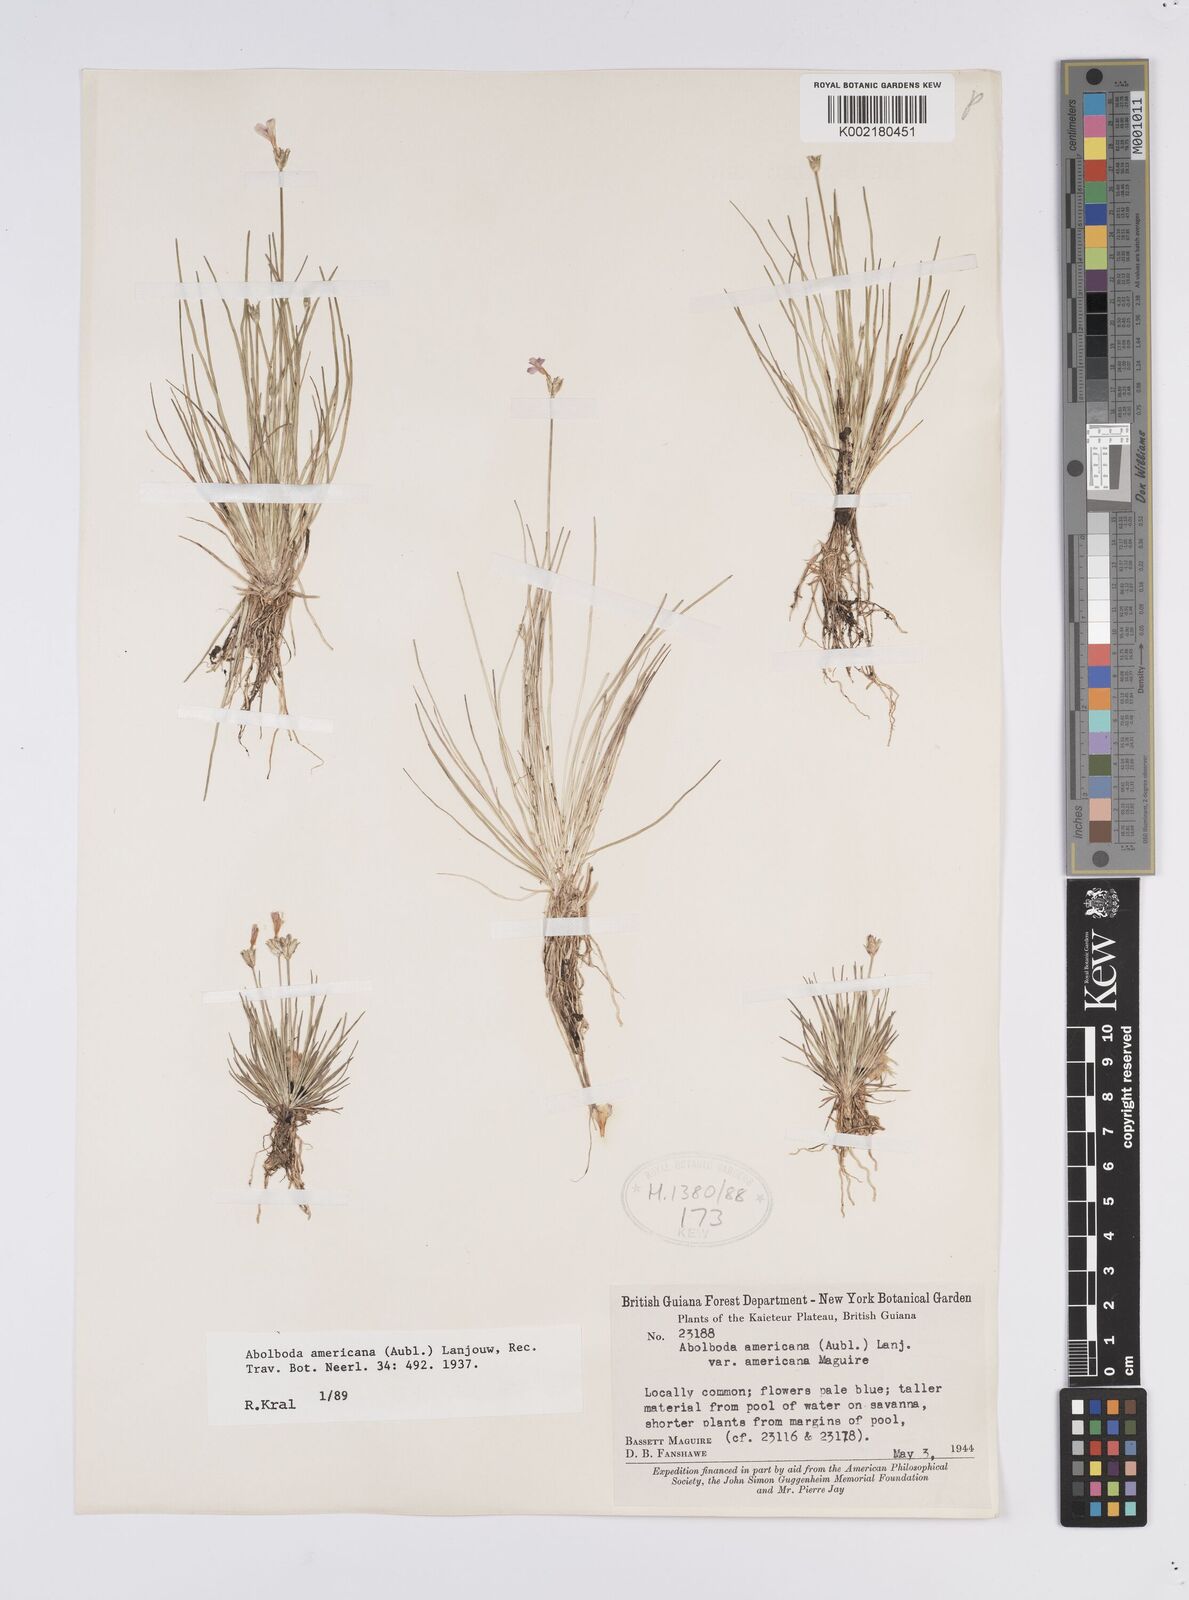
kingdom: Plantae
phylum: Tracheophyta
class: Liliopsida
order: Poales
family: Xyridaceae
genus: Abolboda
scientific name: Abolboda americana
